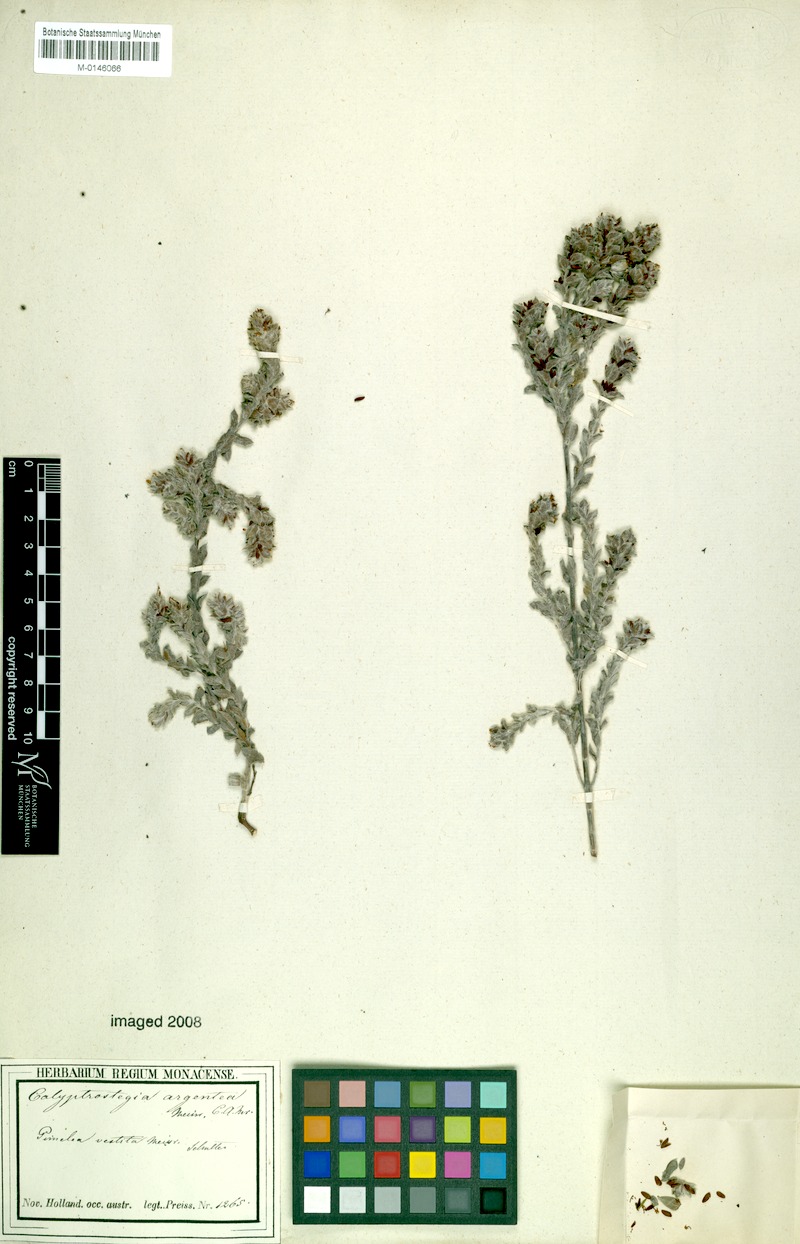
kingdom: Plantae
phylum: Tracheophyta
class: Magnoliopsida
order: Malvales
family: Thymelaeaceae
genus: Pimelea
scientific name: Pimelea argentea
